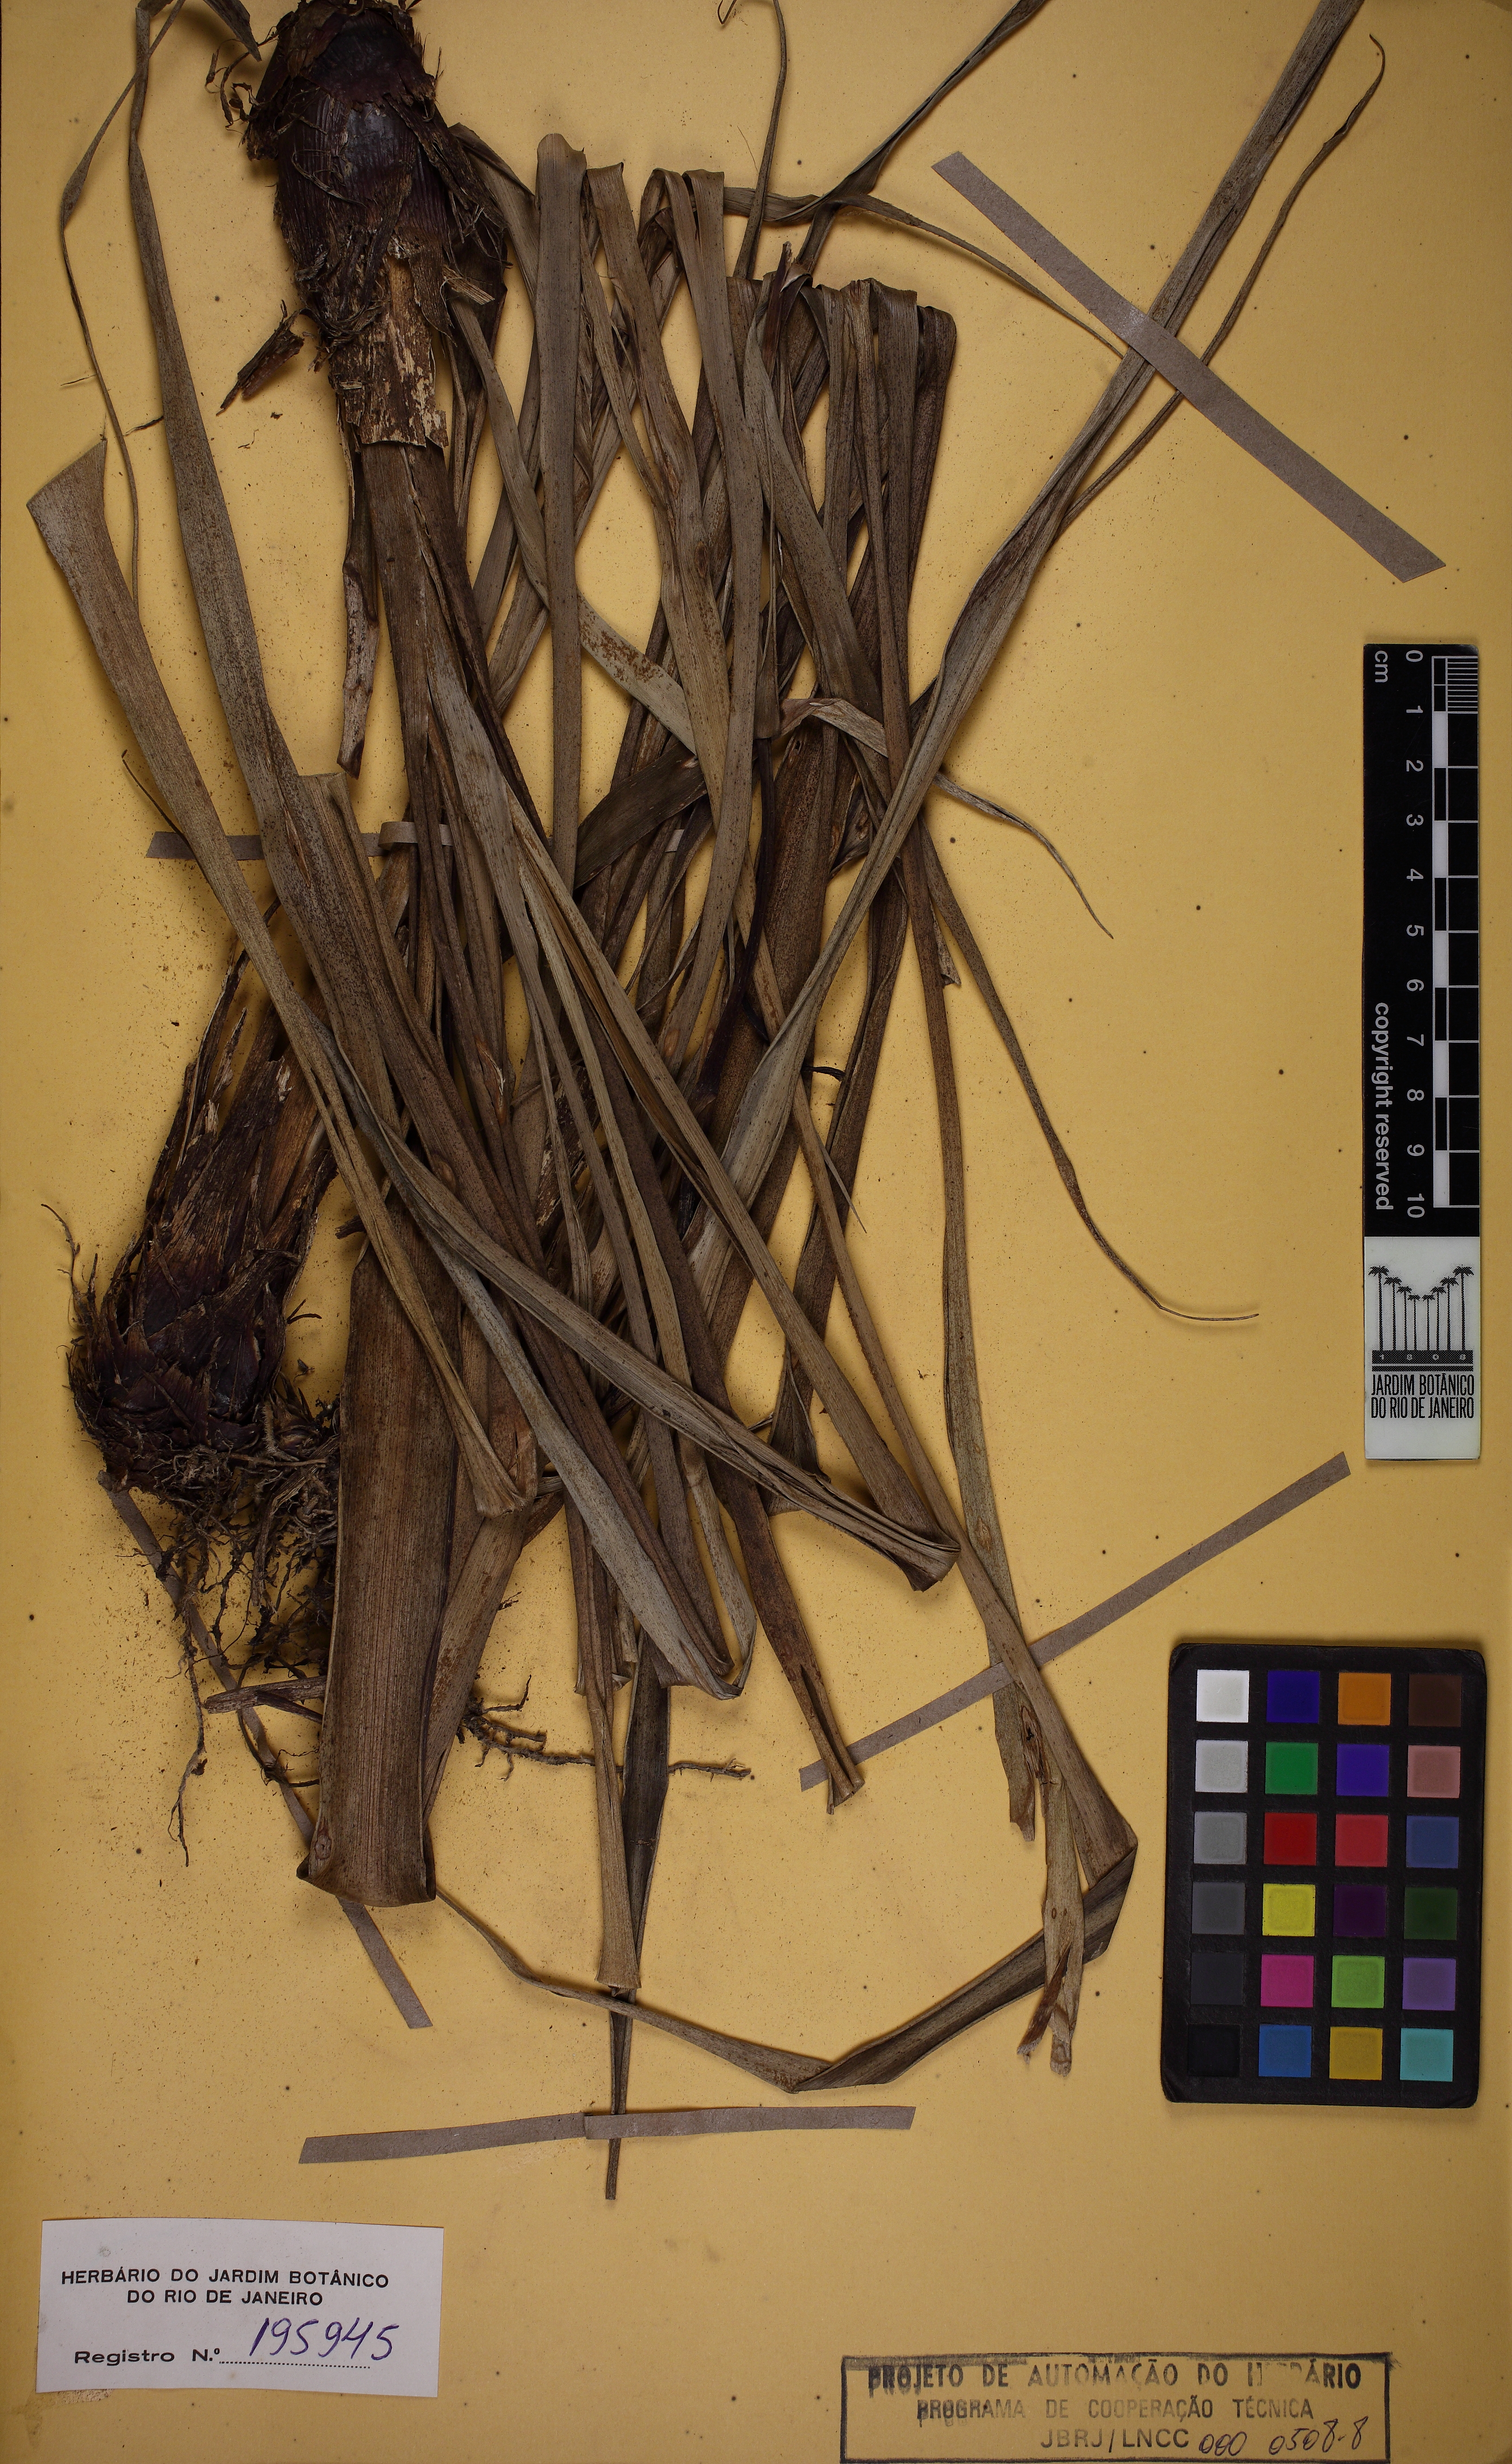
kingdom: Plantae
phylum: Tracheophyta
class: Liliopsida
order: Poales
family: Bromeliaceae
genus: Pitcairnia
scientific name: Pitcairnia flammea
